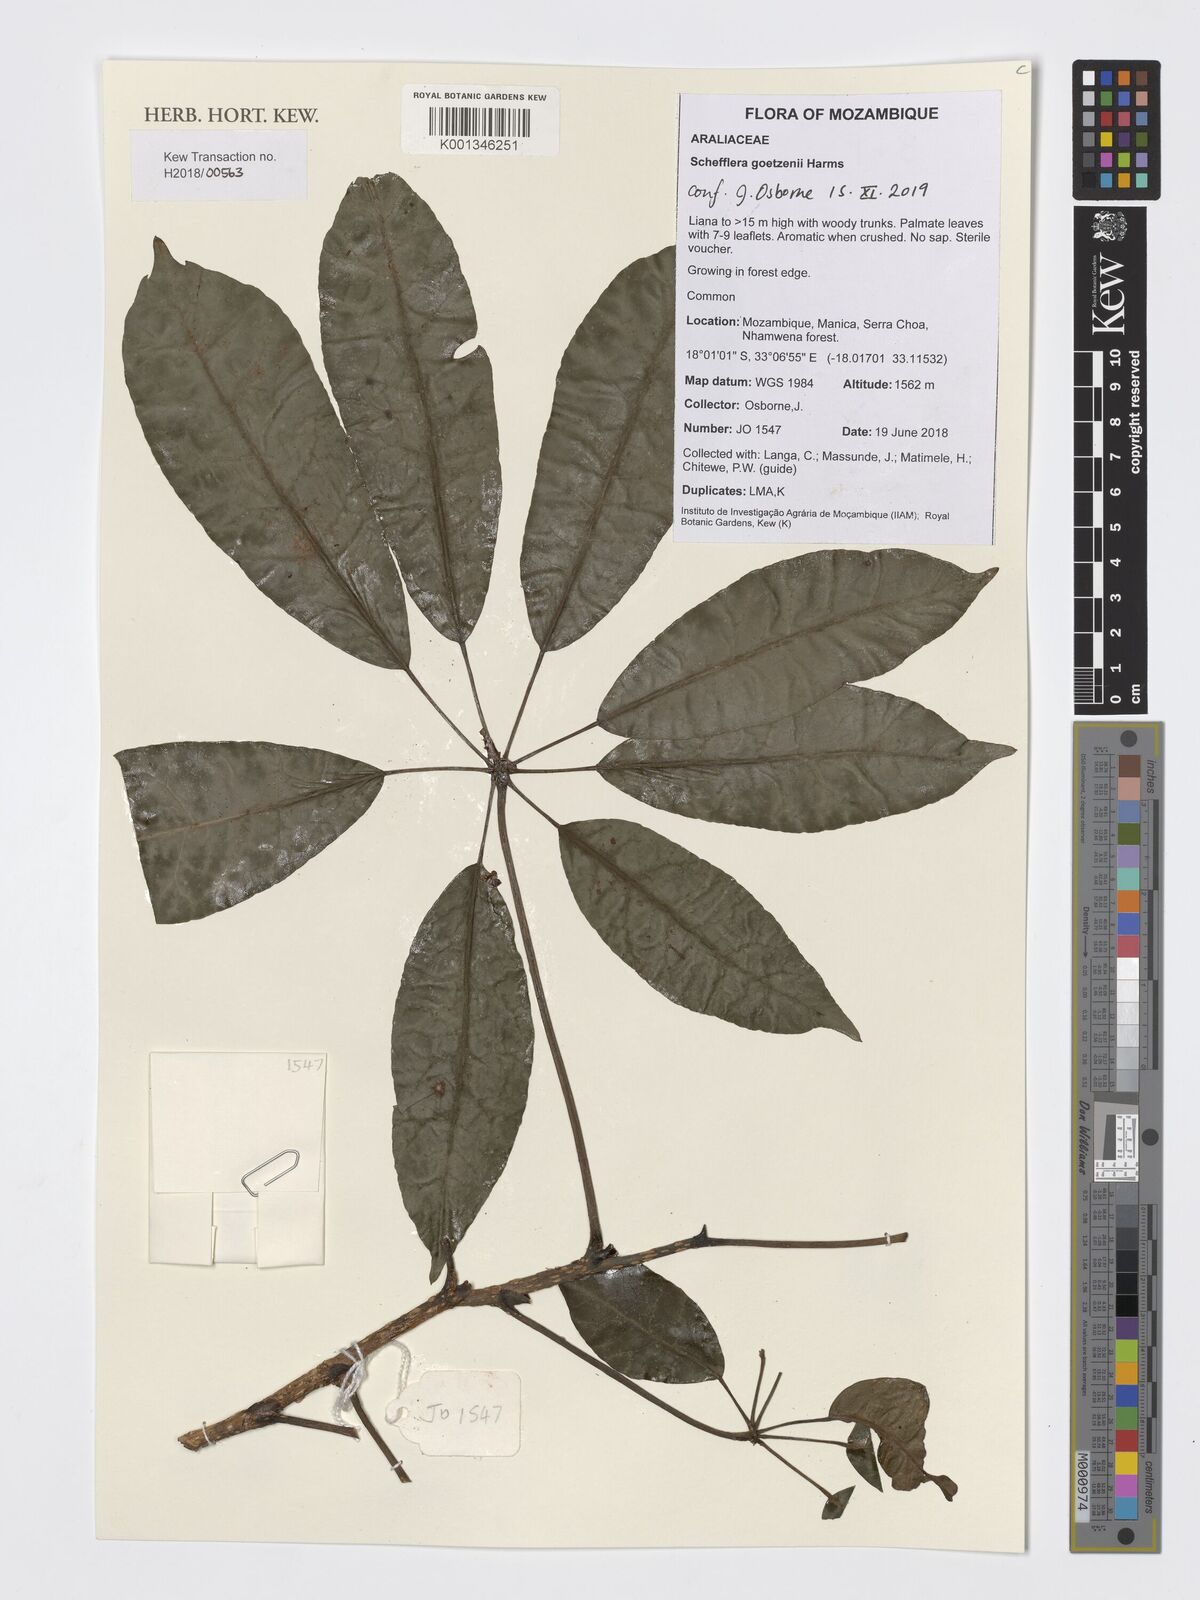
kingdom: Plantae
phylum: Tracheophyta
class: Magnoliopsida
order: Apiales
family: Araliaceae
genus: Astropanax
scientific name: Astropanax goetzenii
